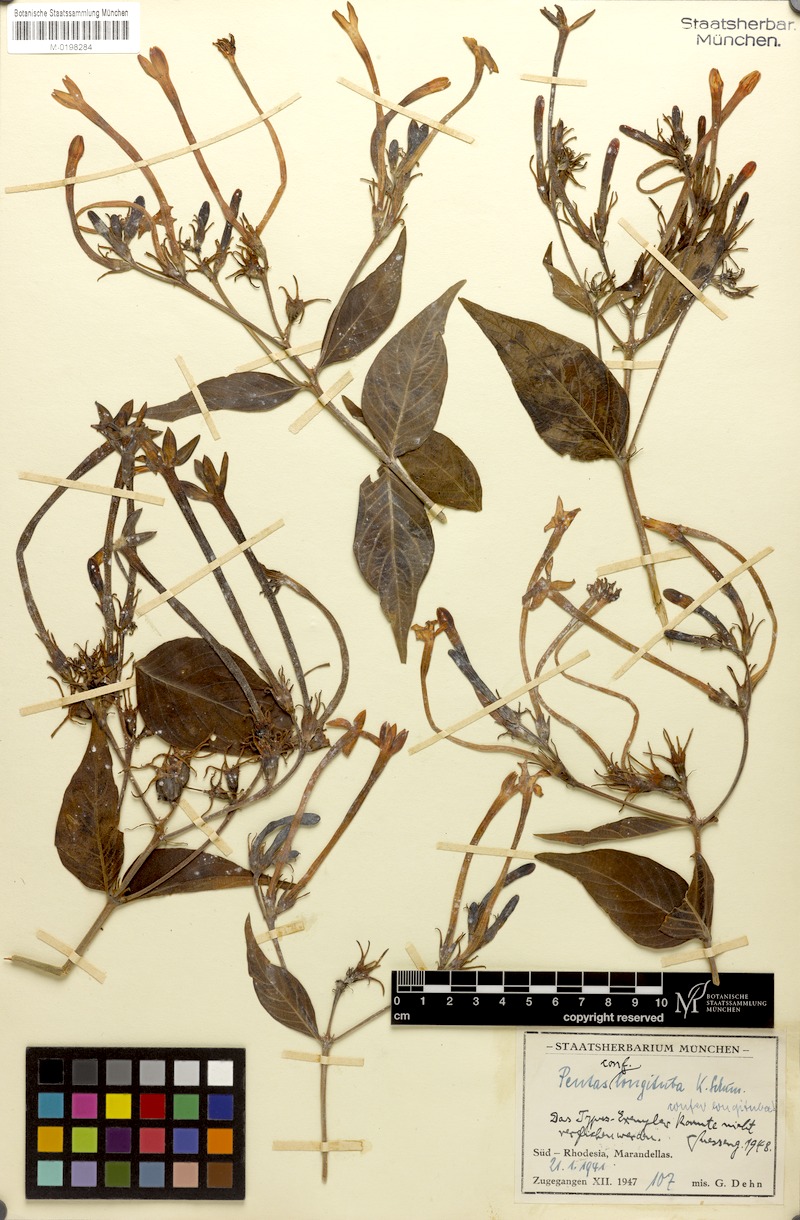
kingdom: Plantae
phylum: Tracheophyta
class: Magnoliopsida
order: Gentianales
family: Rubiaceae
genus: Chamaepentas
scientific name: Chamaepentas longituba
